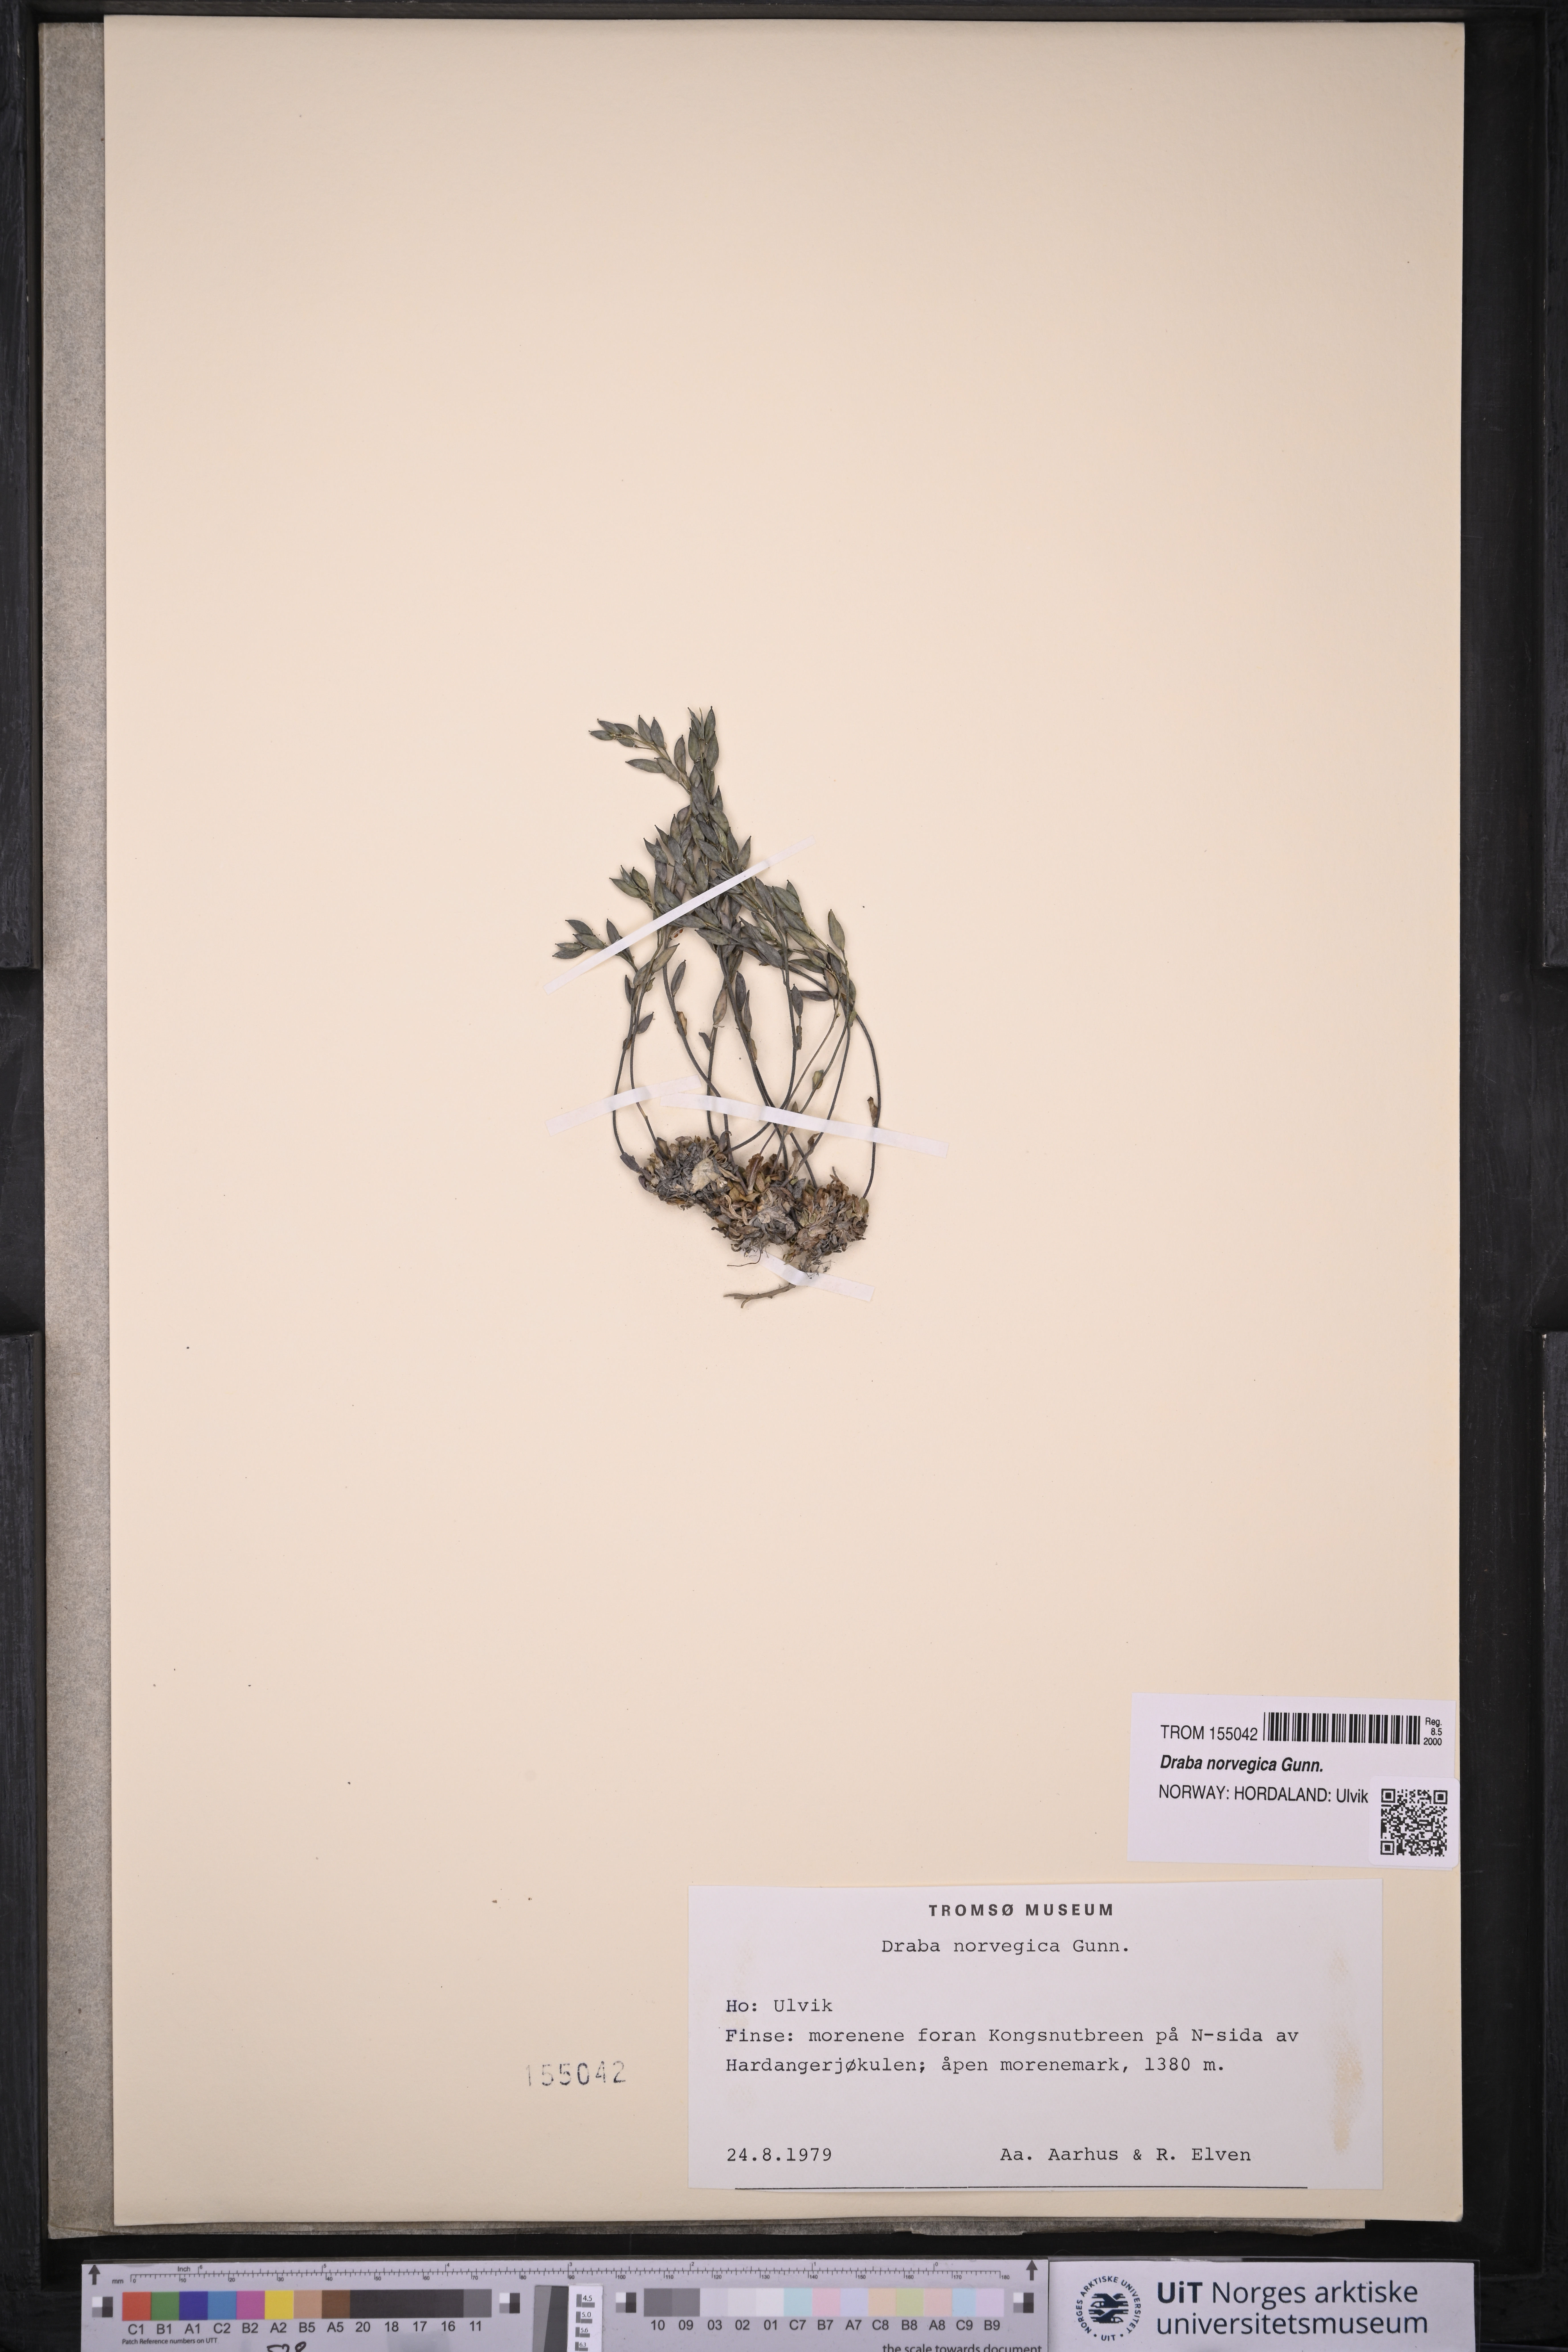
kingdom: Plantae
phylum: Tracheophyta
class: Magnoliopsida
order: Brassicales
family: Brassicaceae
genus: Draba
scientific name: Draba norvegica
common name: Rock whitlowgrass
